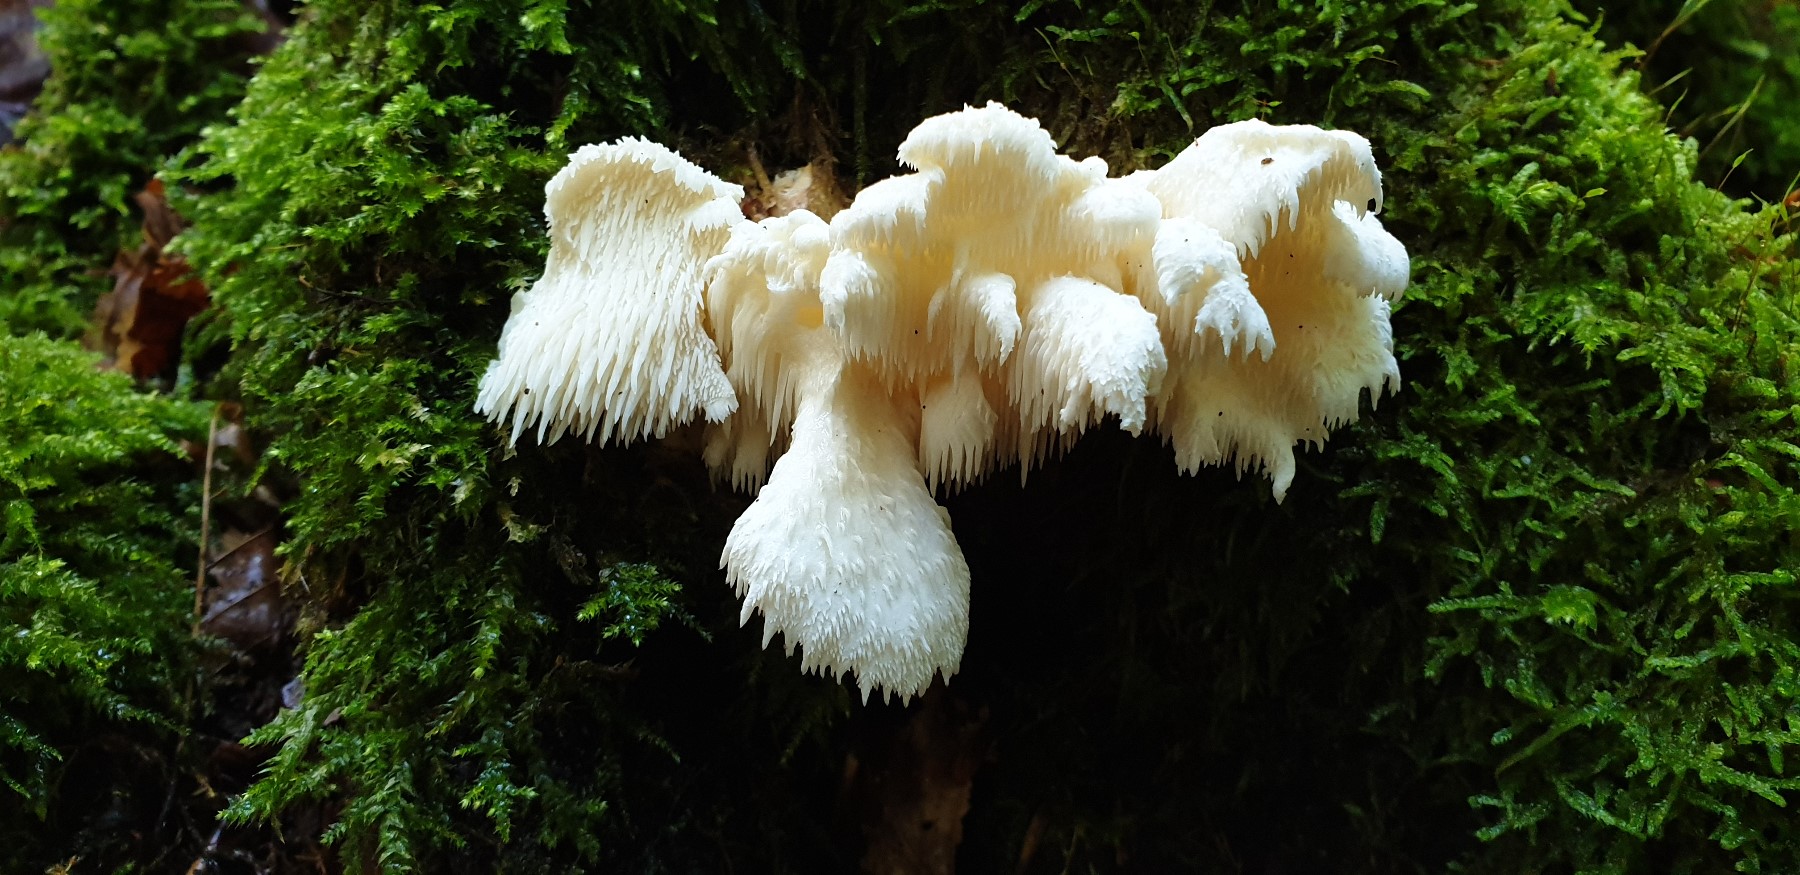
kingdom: Fungi
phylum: Basidiomycota
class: Agaricomycetes
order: Russulales
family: Hericiaceae
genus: Hericium
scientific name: Hericium cirrhatum
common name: børstepigsvamp
